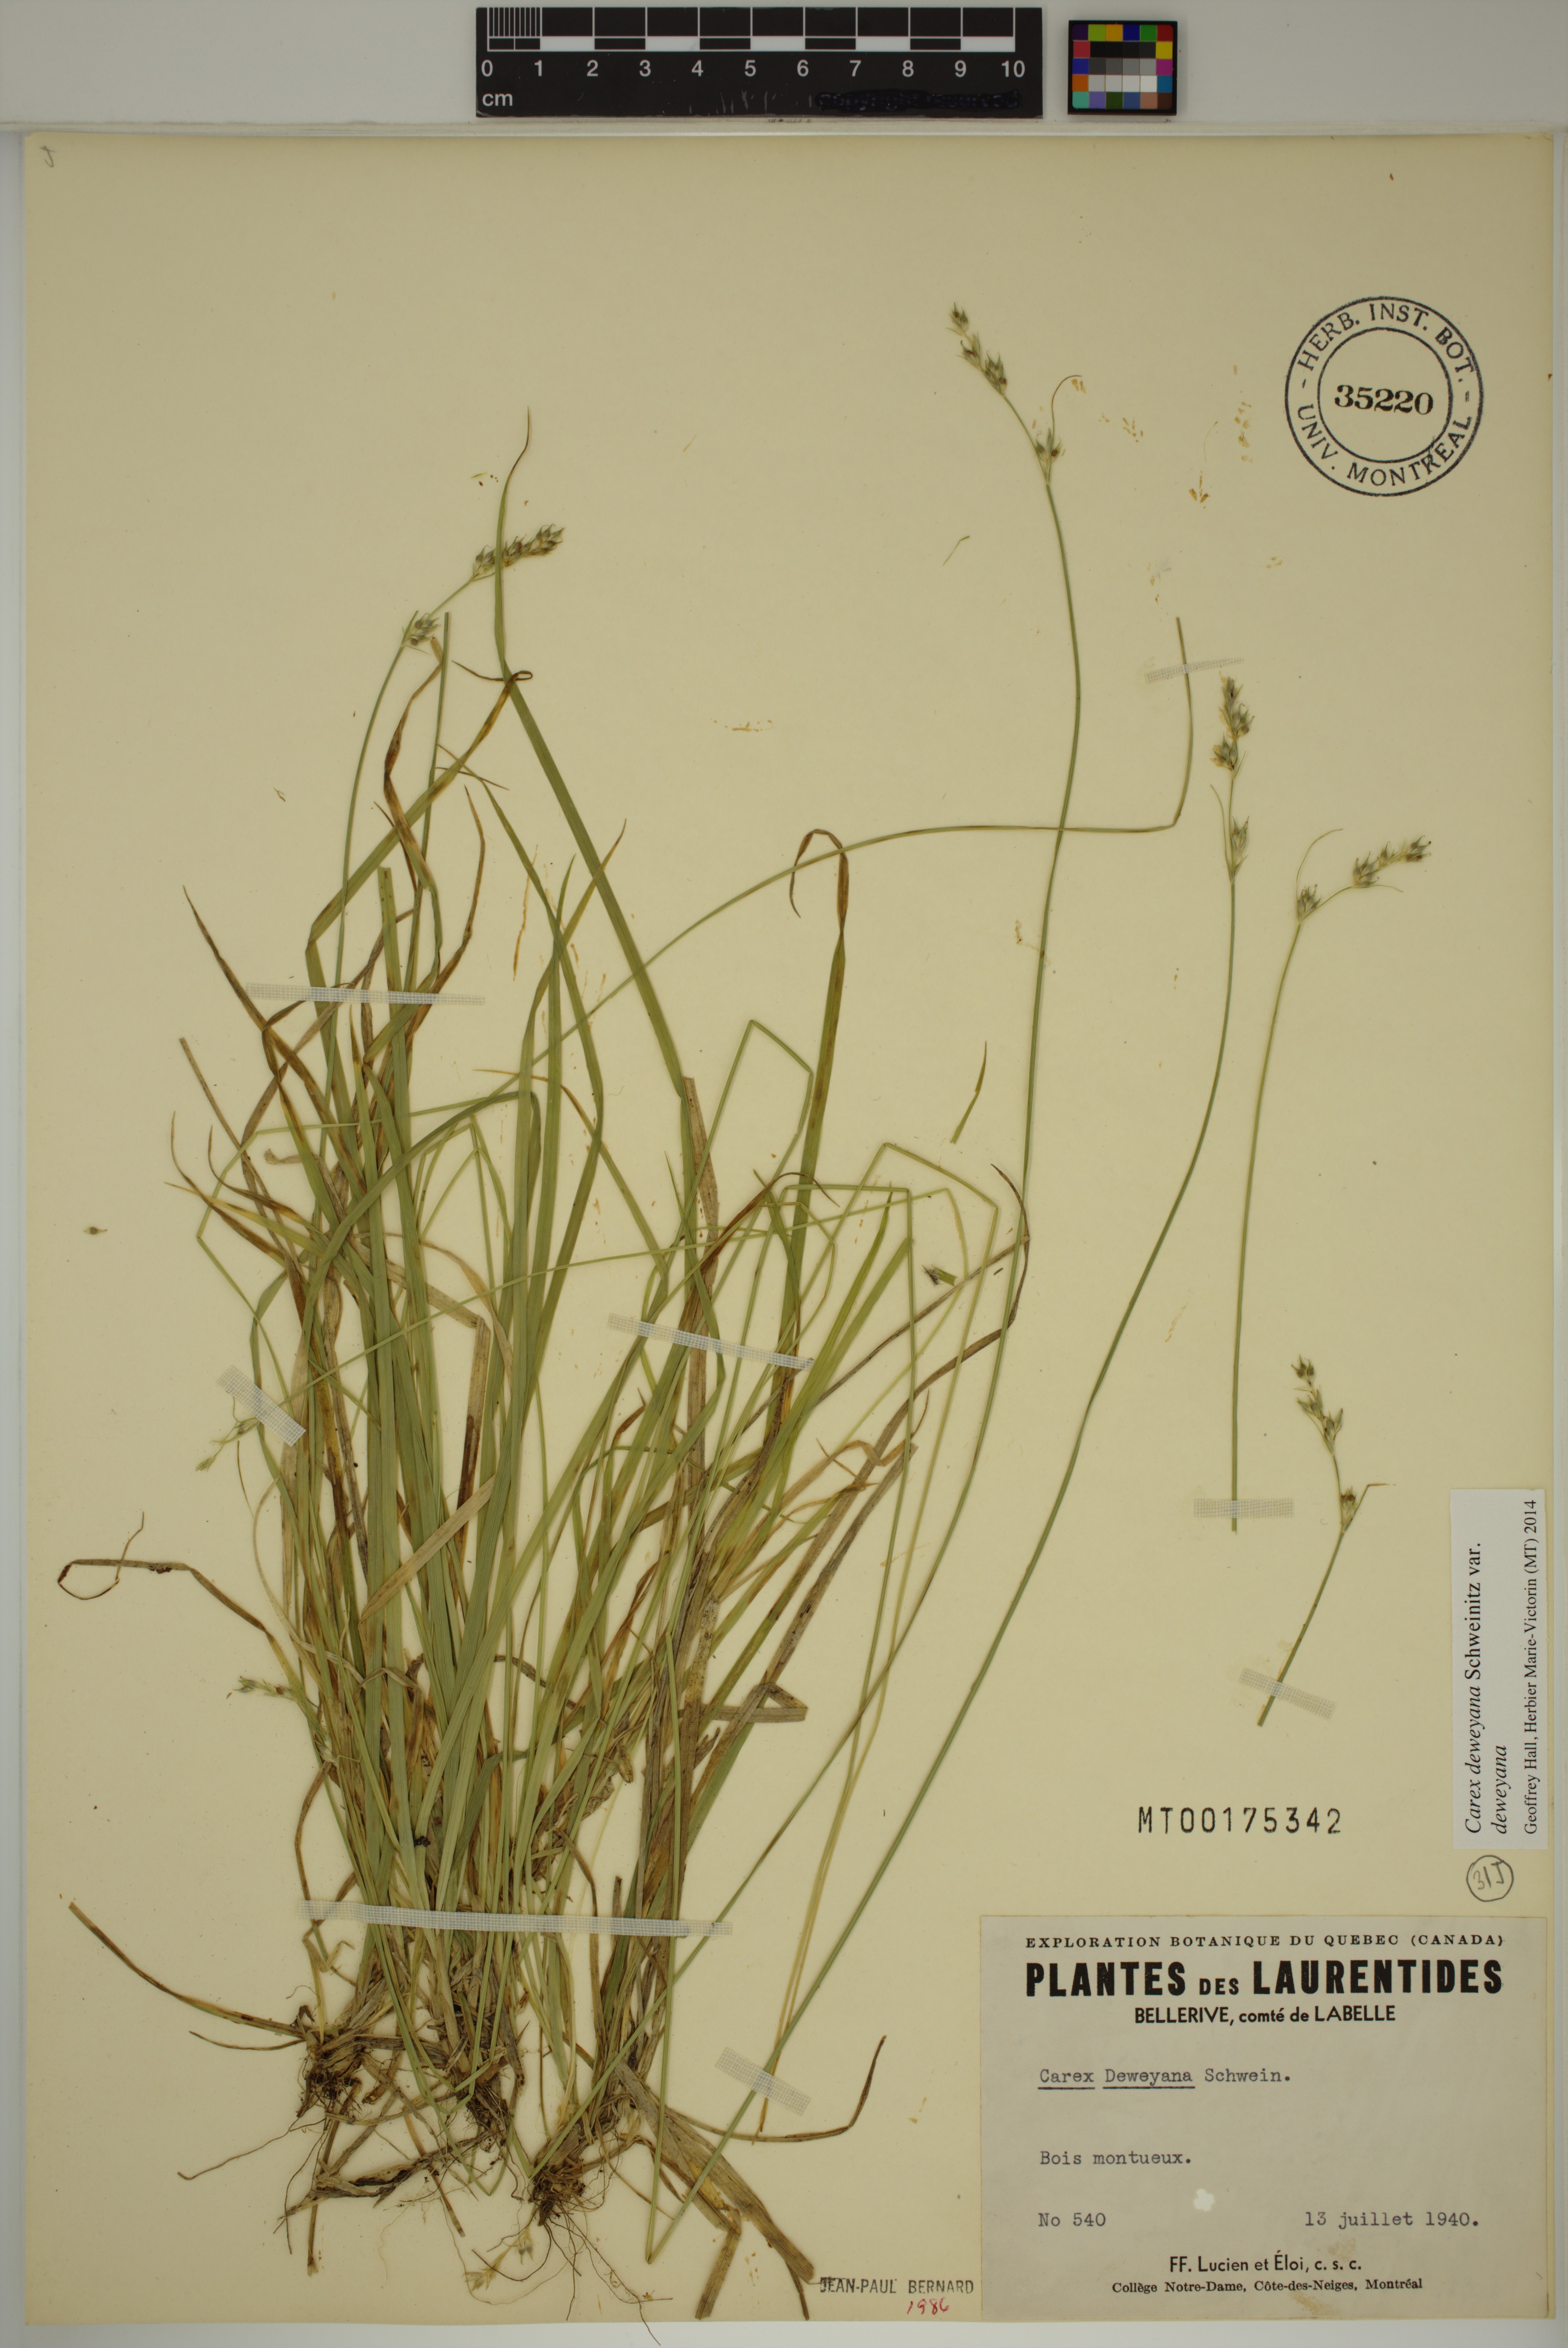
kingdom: Plantae
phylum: Tracheophyta
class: Liliopsida
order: Poales
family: Cyperaceae
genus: Carex
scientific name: Carex deweyana
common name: Dewey's sedge
